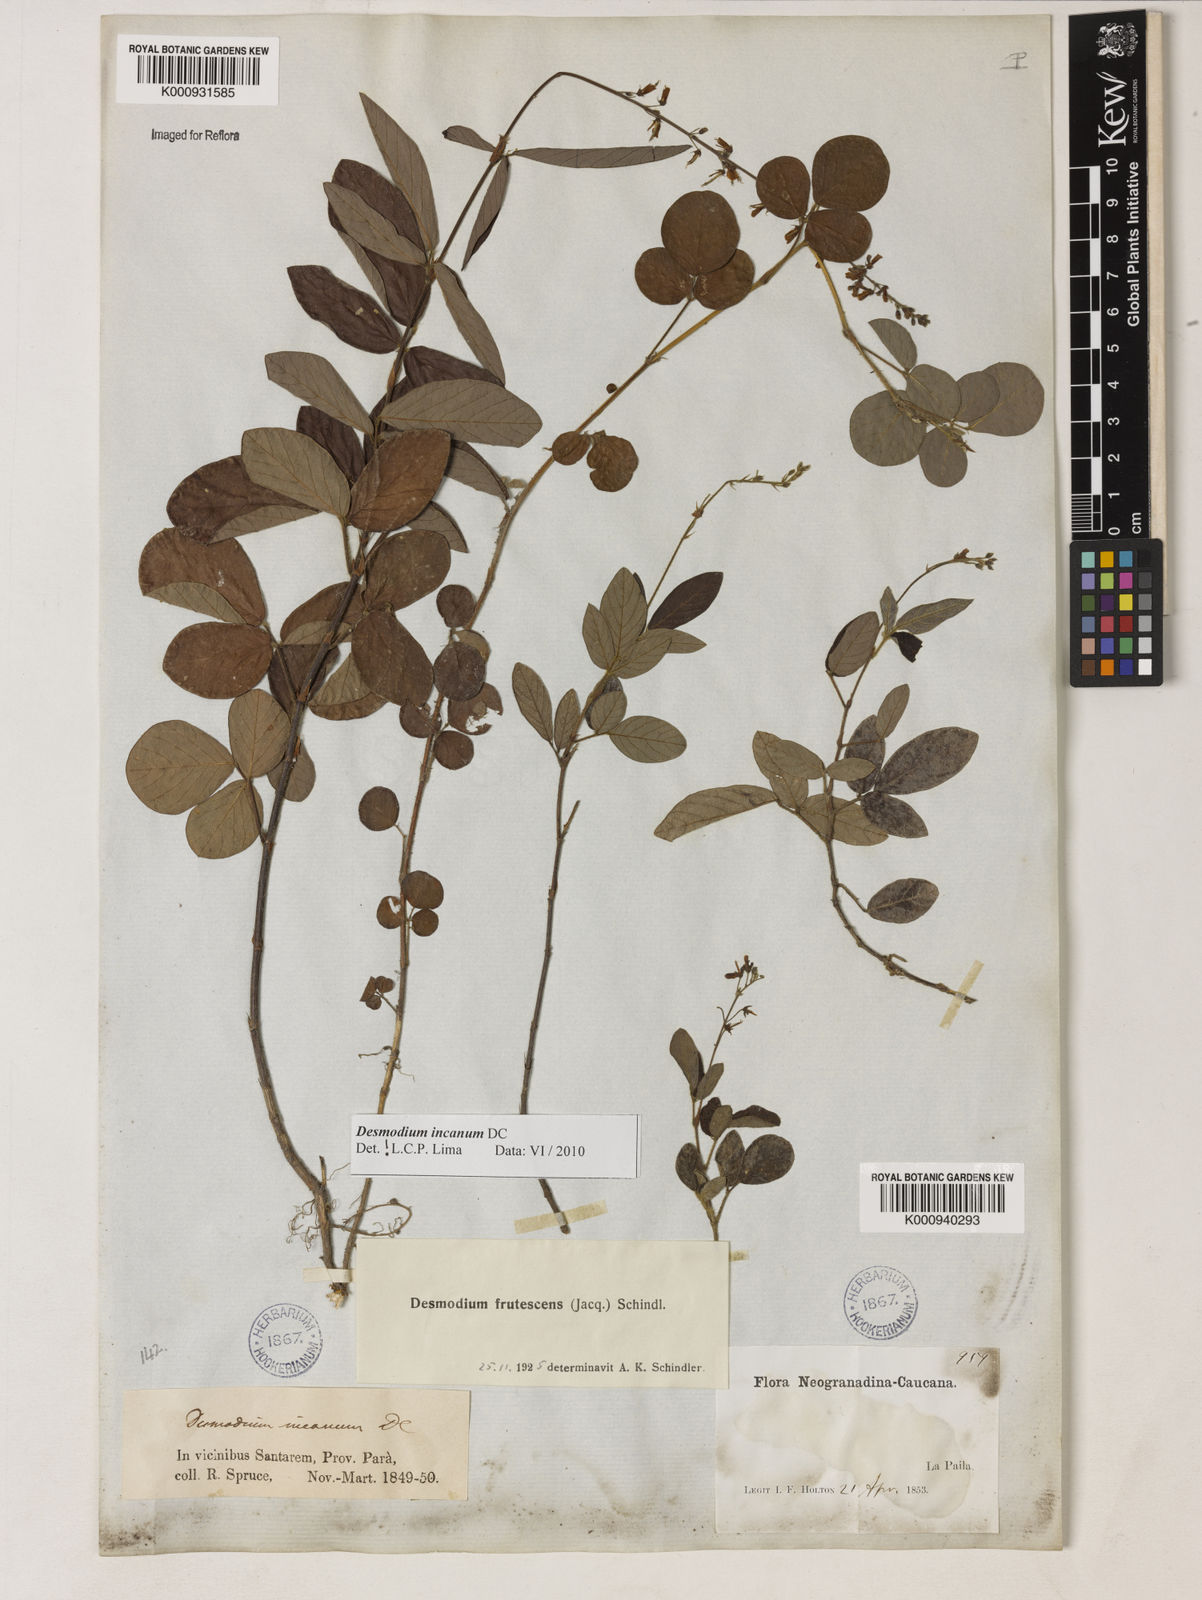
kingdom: Plantae
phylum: Tracheophyta
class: Magnoliopsida
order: Fabales
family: Fabaceae
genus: Desmodium
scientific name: Desmodium incanum
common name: Tickclover
